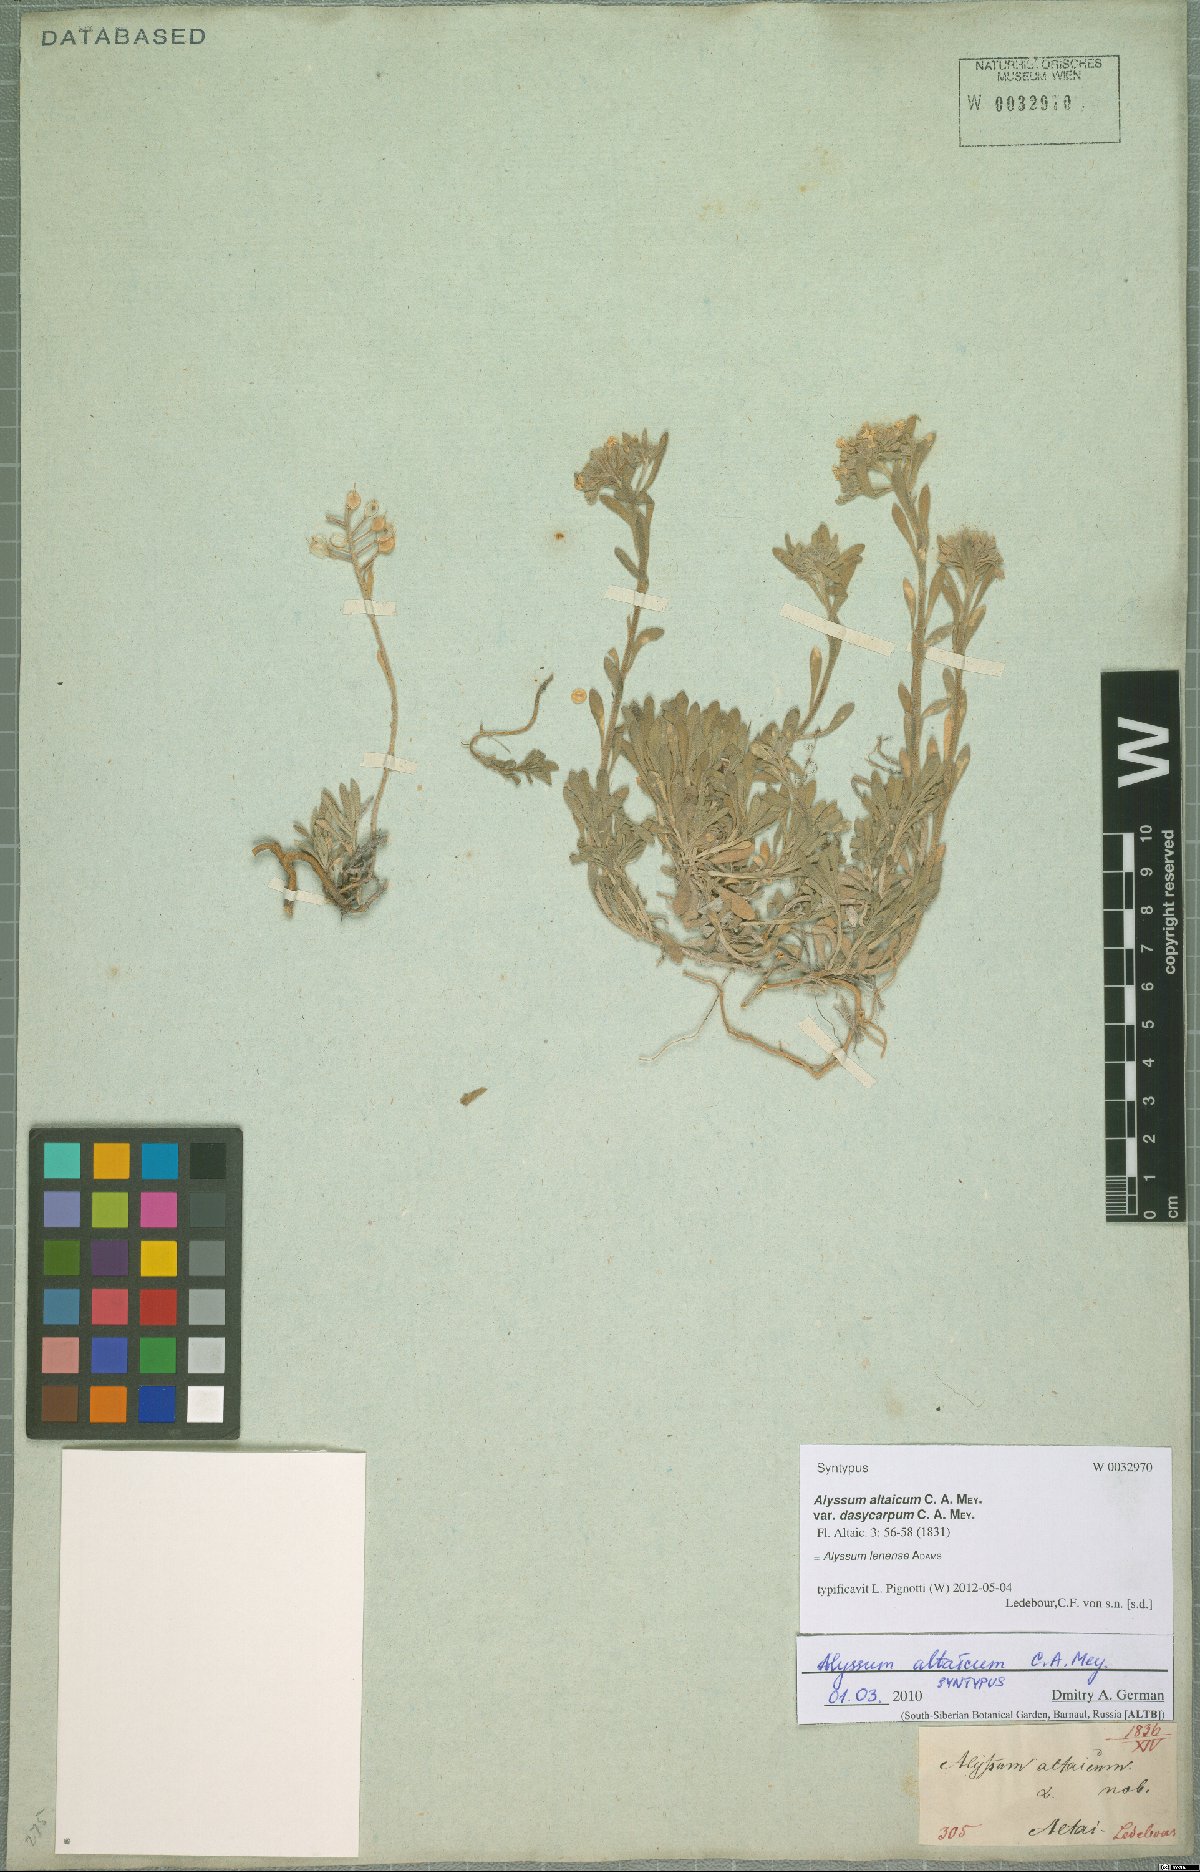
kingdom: Plantae
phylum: Tracheophyta
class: Magnoliopsida
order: Brassicales
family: Brassicaceae
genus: Alyssum
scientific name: Alyssum lenense
